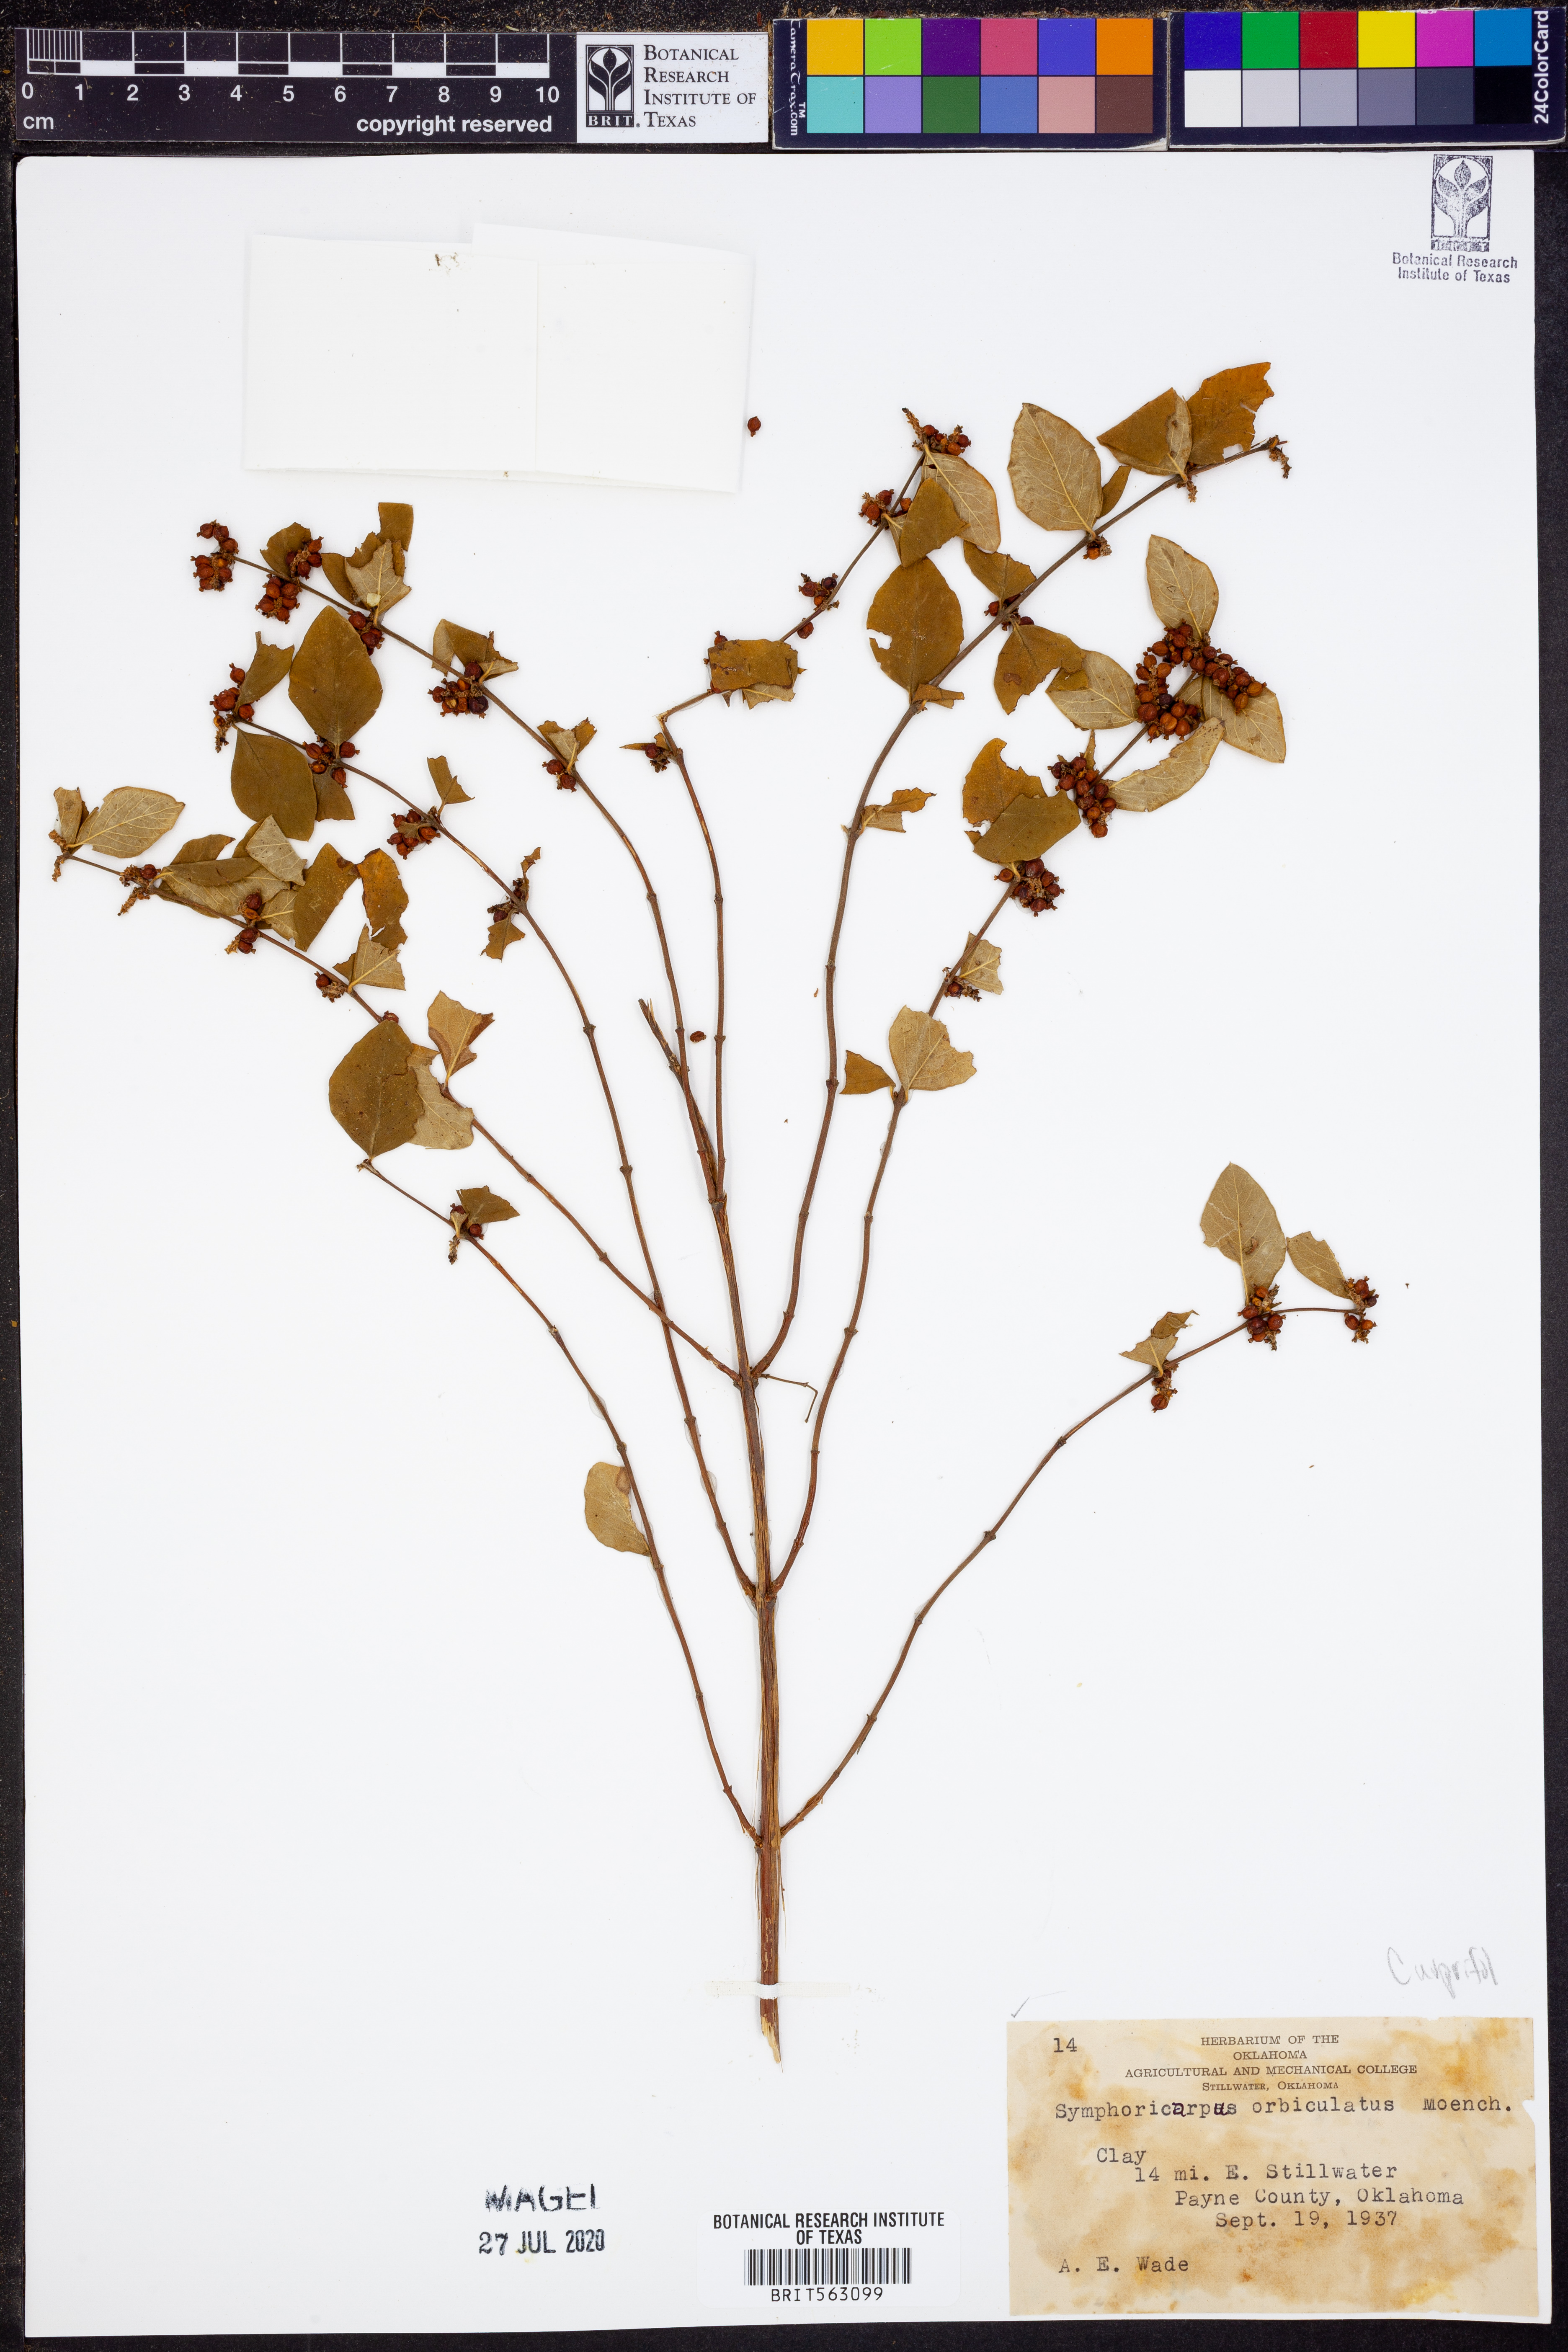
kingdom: Plantae
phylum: Tracheophyta
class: Magnoliopsida
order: Dipsacales
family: Caprifoliaceae
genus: Symphoricarpos
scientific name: Symphoricarpos orbiculatus
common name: Coralberry
